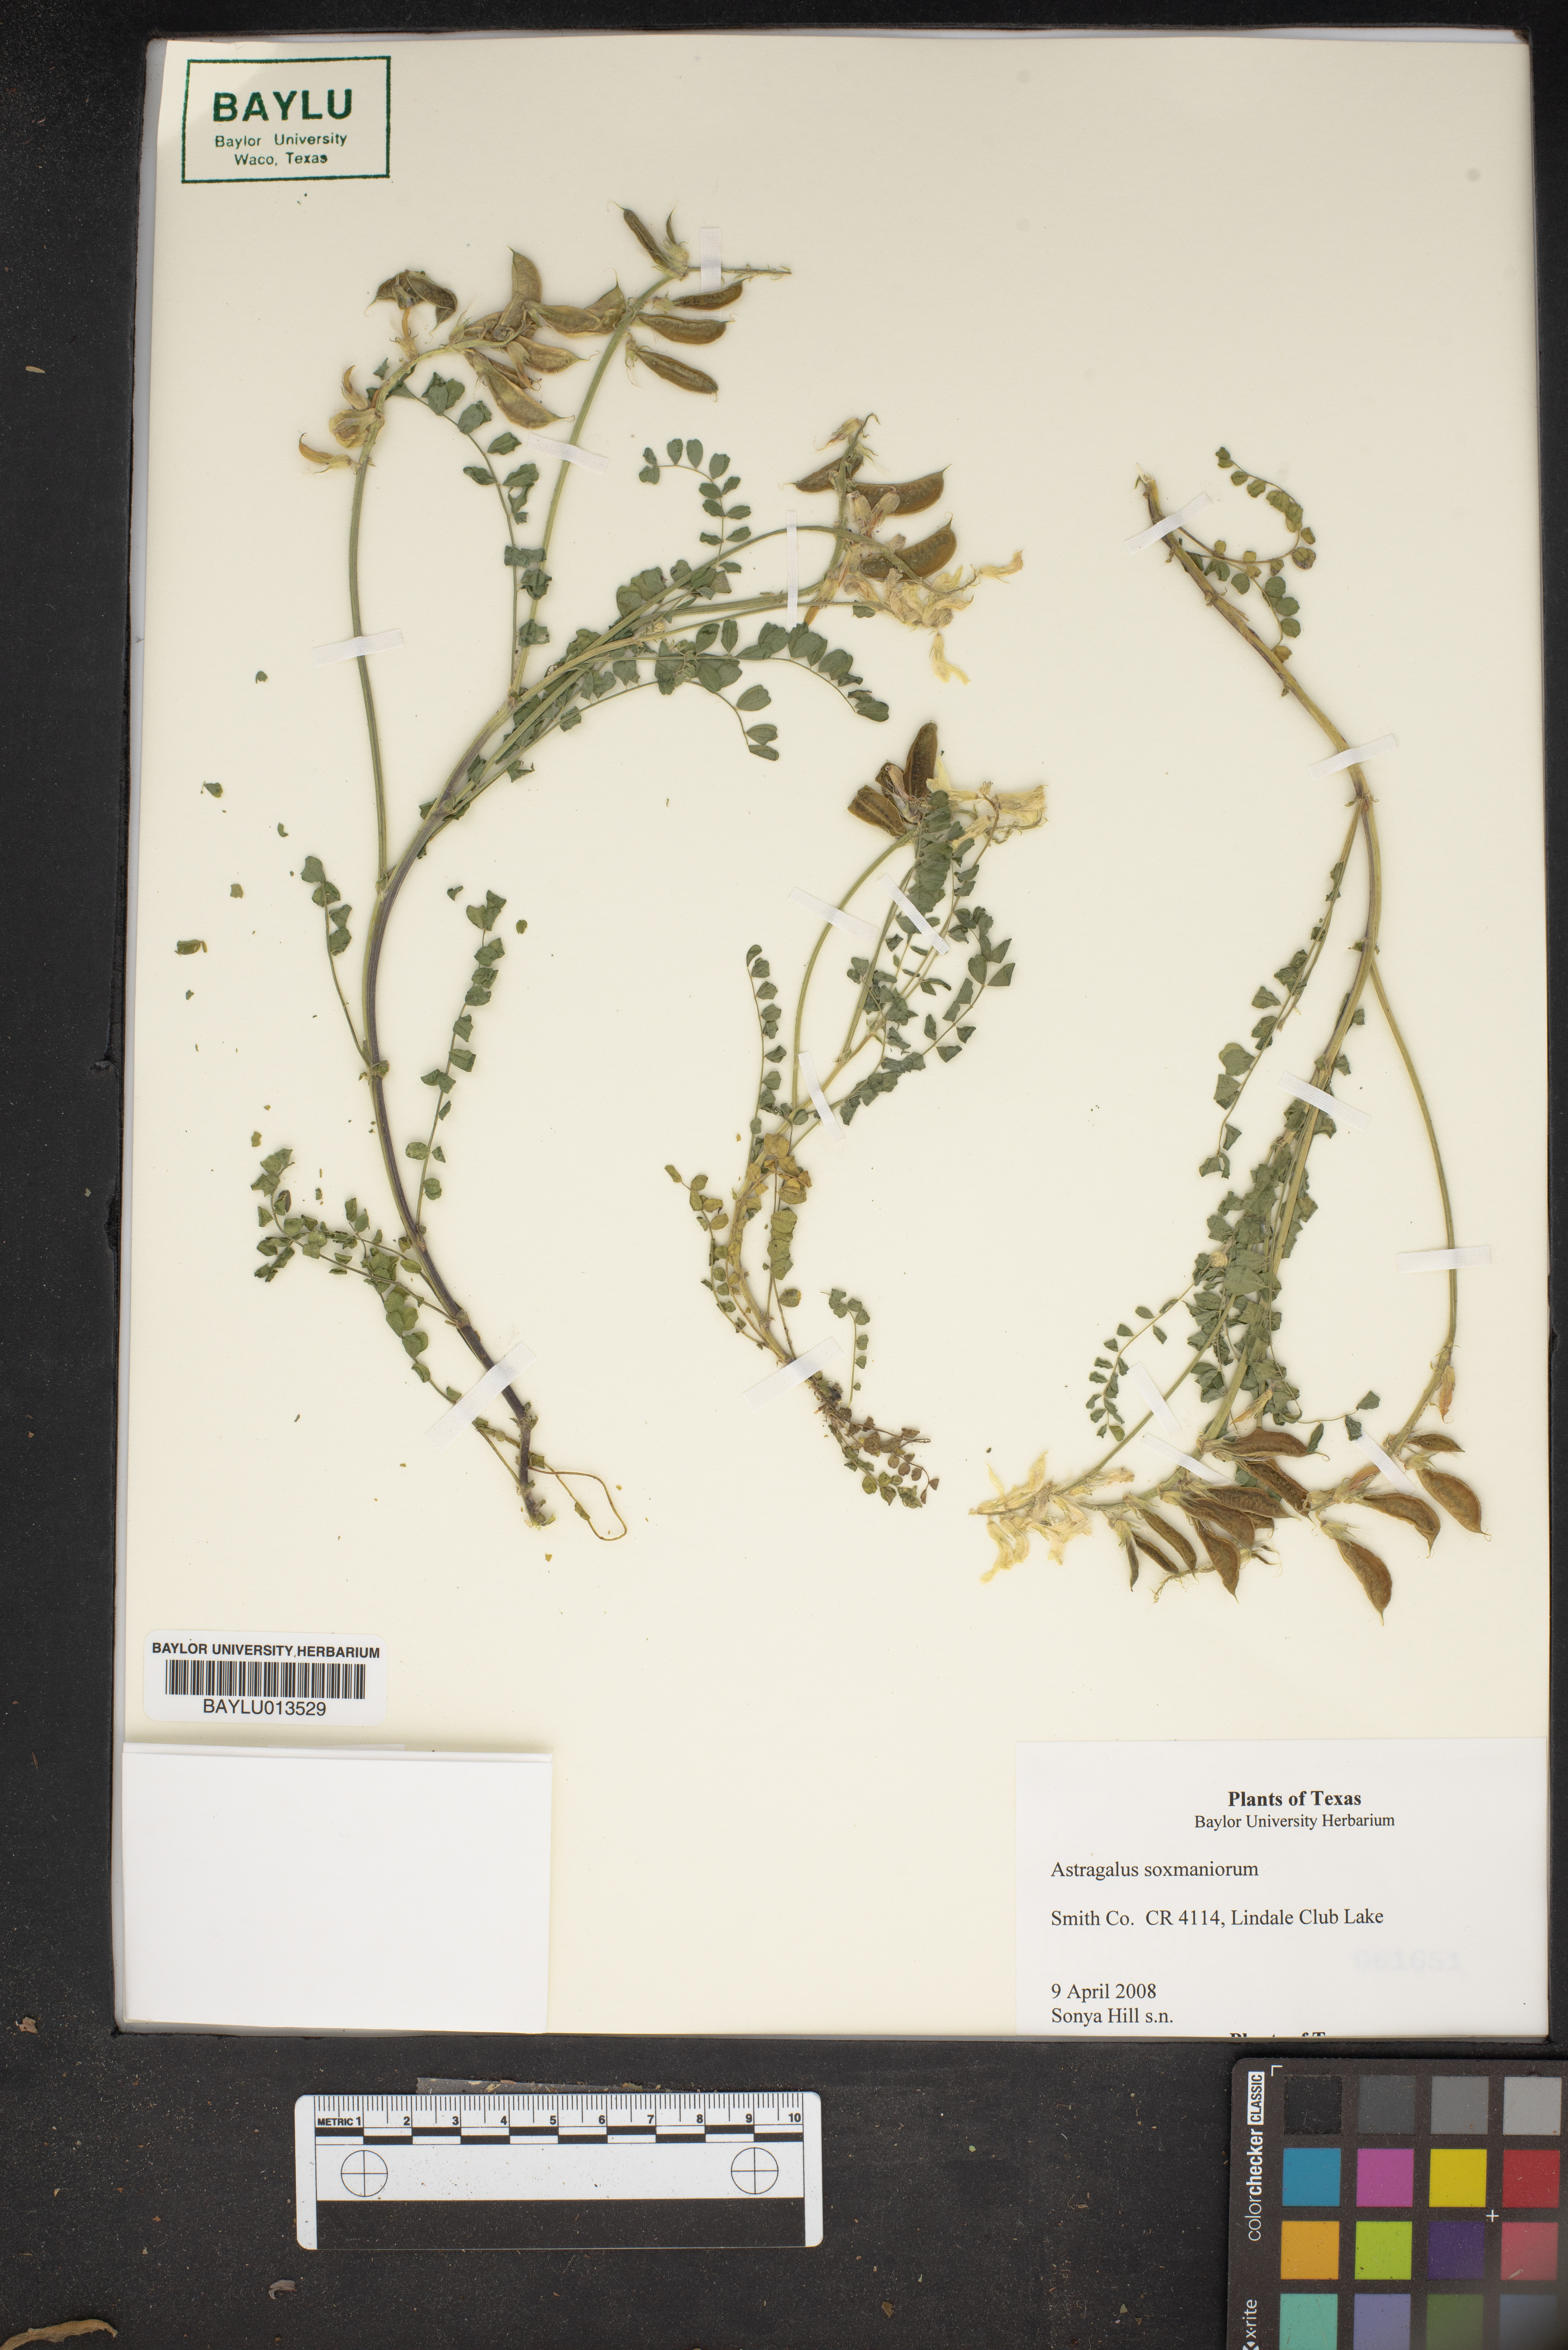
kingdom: Plantae
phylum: Tracheophyta
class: Magnoliopsida
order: Fabales
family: Fabaceae
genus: Astragalus
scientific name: Astragalus soxmaniorum
